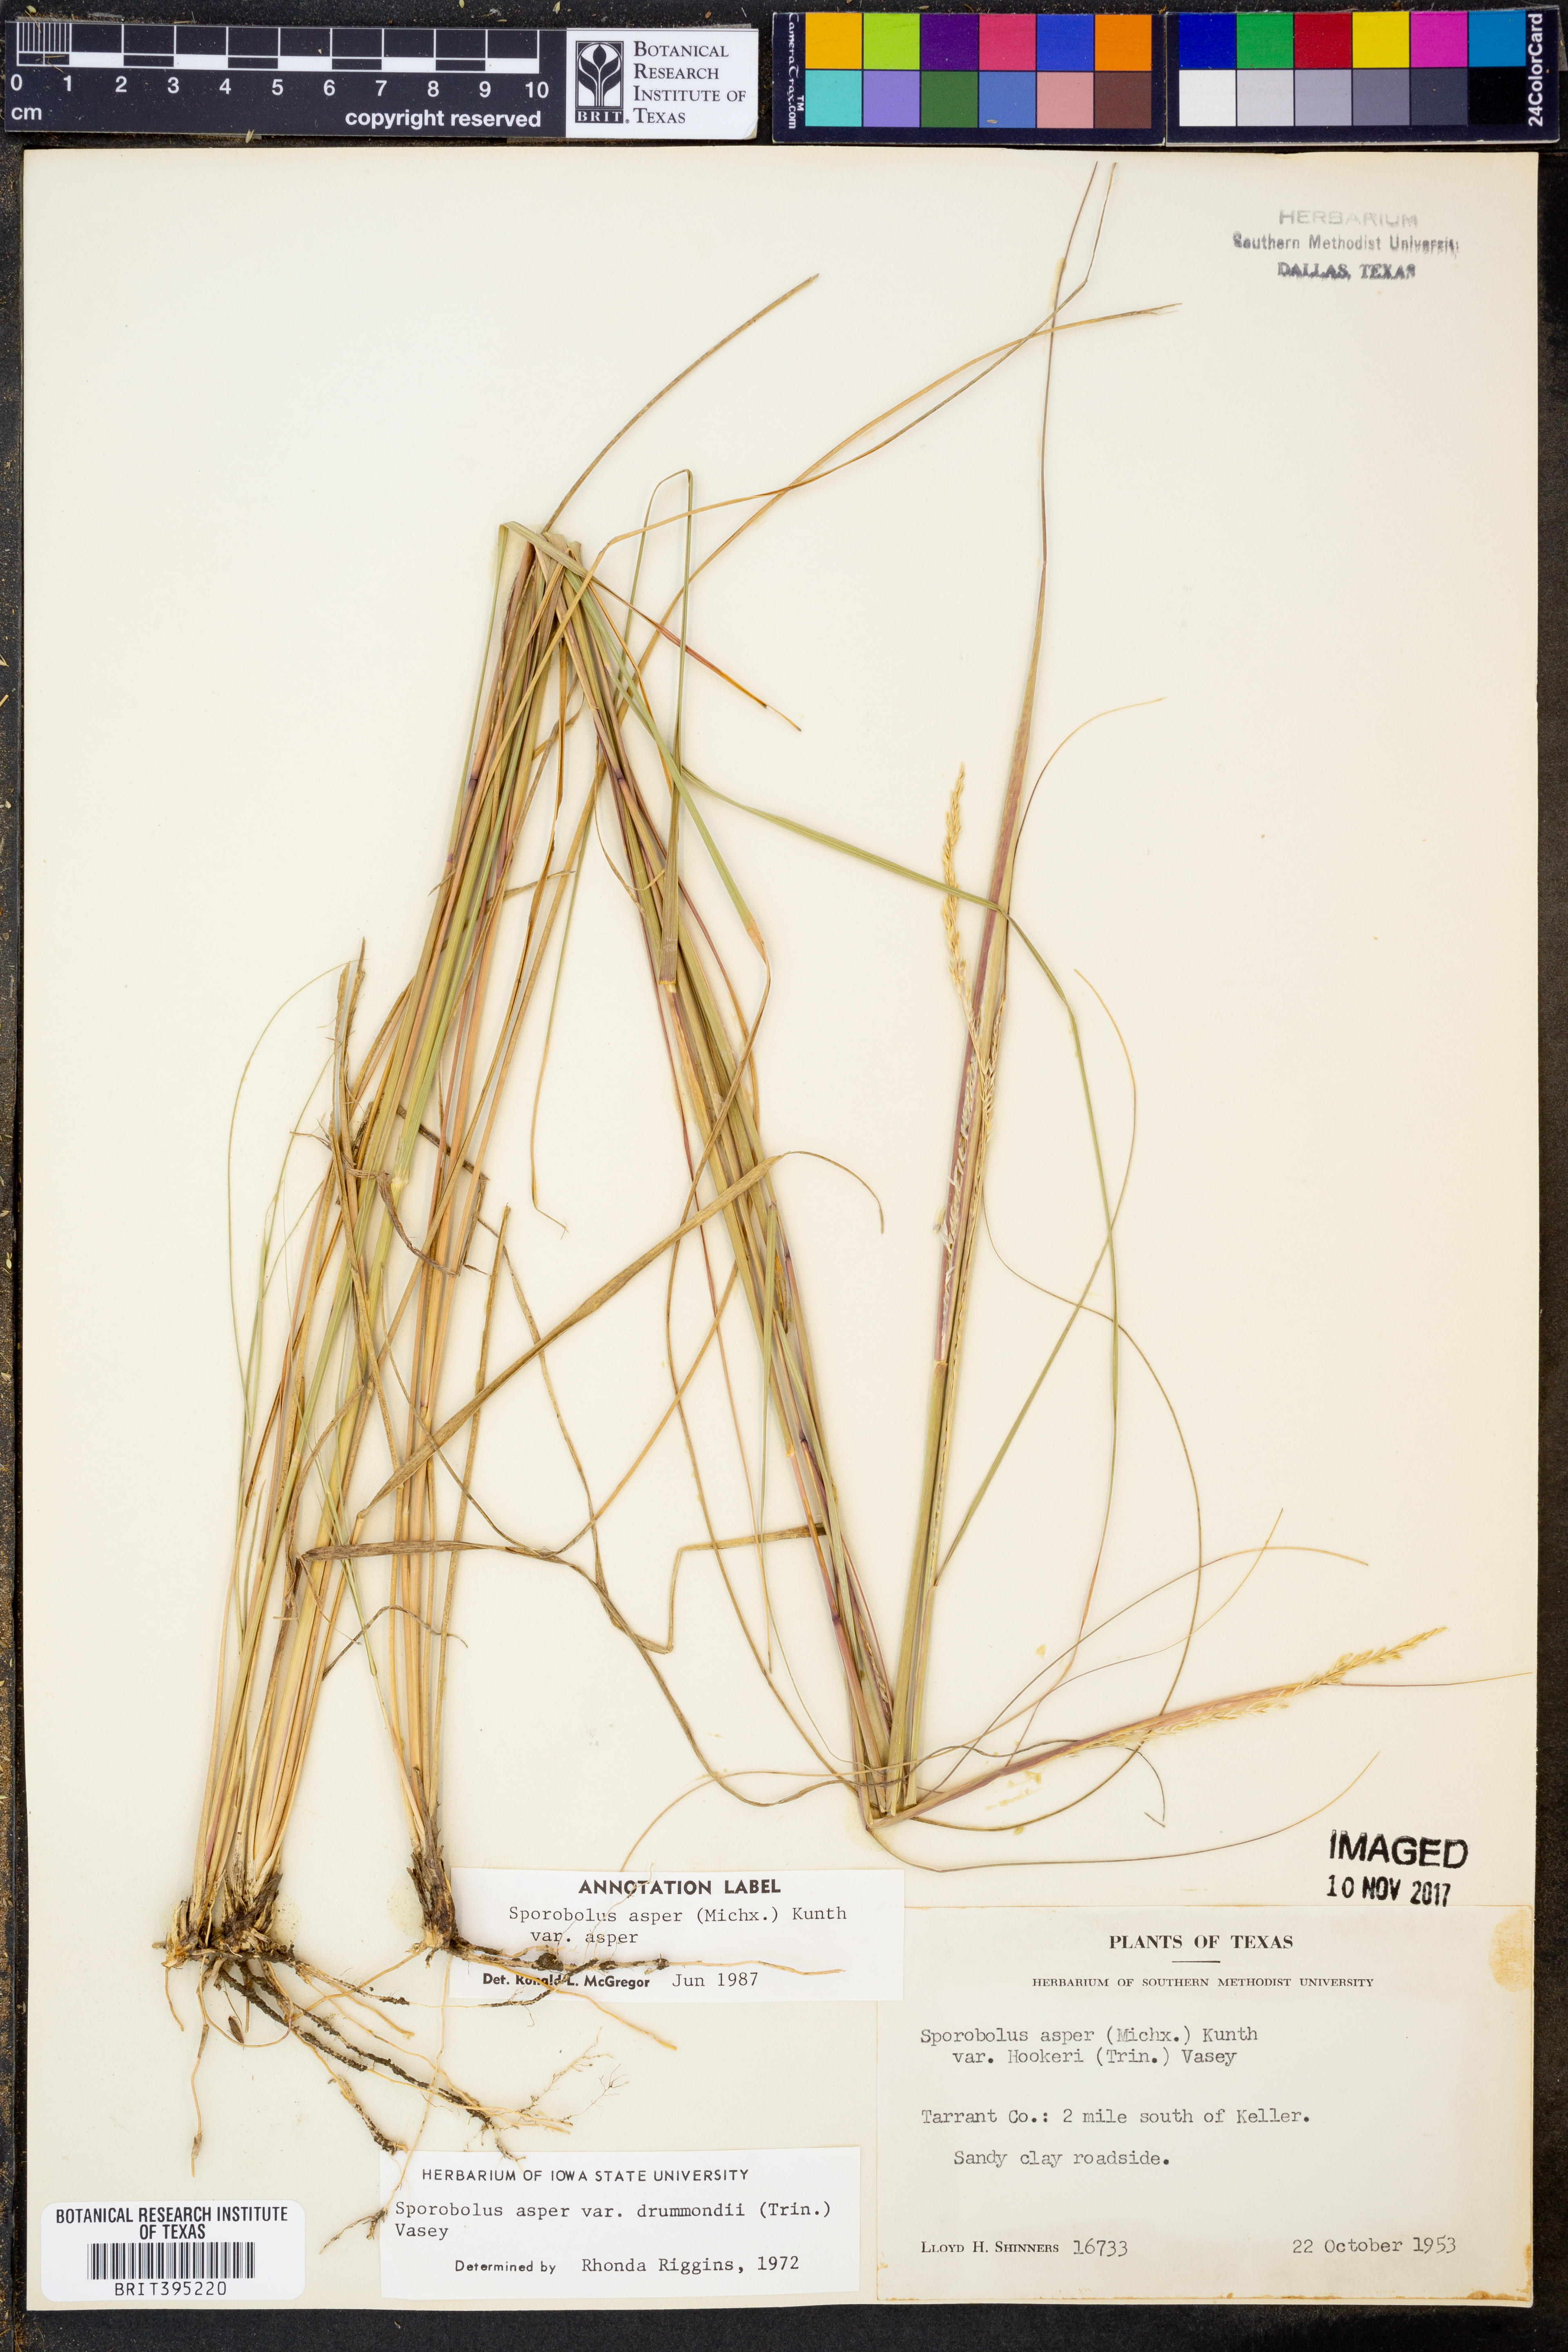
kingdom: Plantae
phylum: Tracheophyta
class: Liliopsida
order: Poales
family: Poaceae
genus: Sporobolus
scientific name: Sporobolus compositus
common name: Rough dropseed
